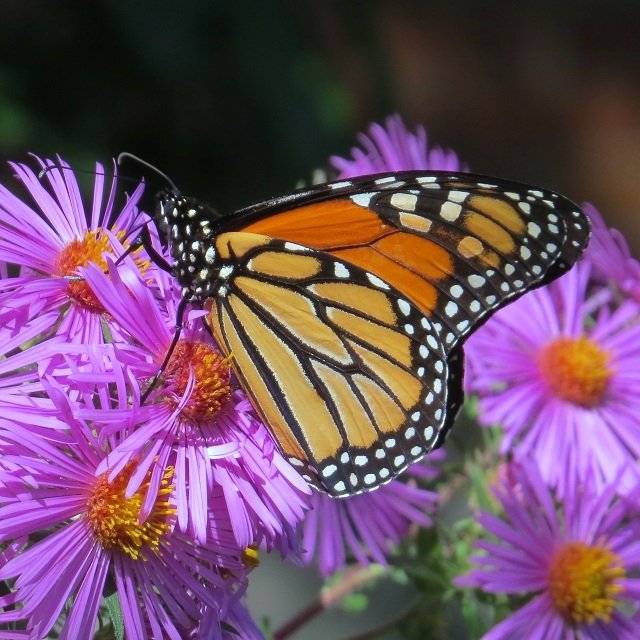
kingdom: Animalia
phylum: Arthropoda
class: Insecta
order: Lepidoptera
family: Nymphalidae
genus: Danaus
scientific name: Danaus plexippus
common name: Monarch
